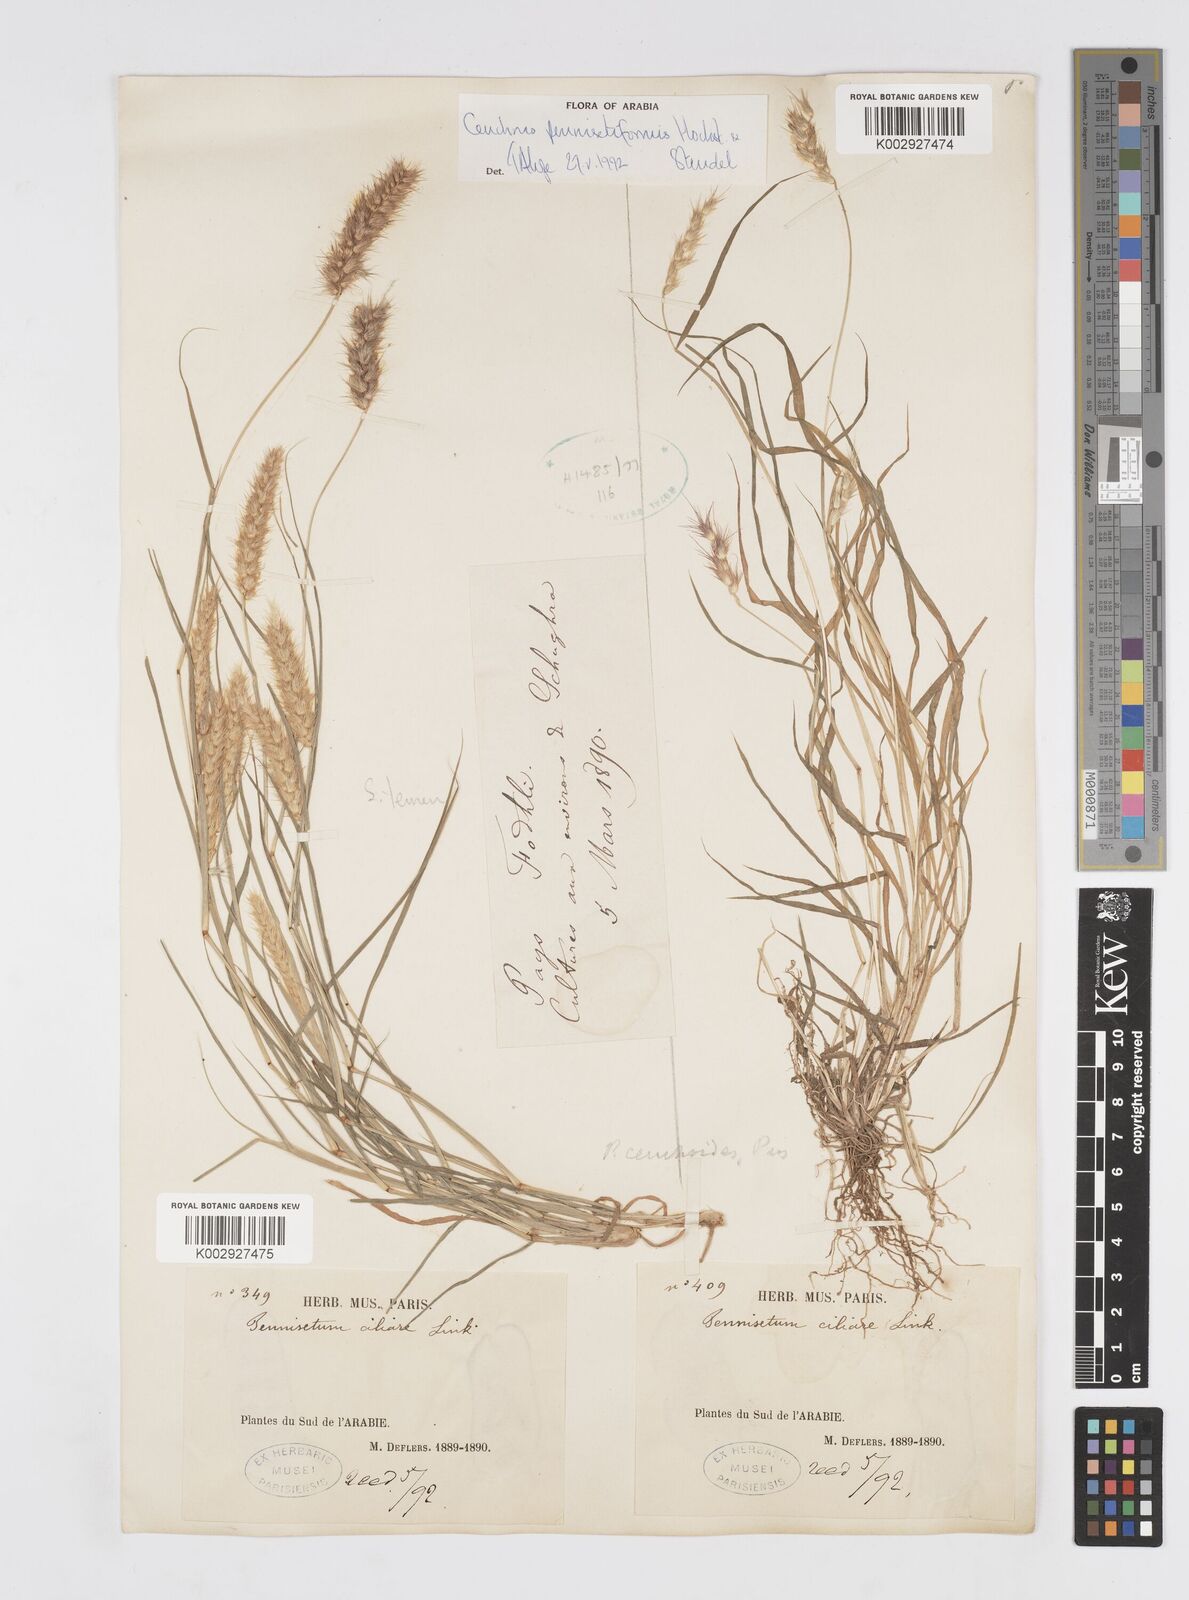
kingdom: Plantae
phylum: Tracheophyta
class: Liliopsida
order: Poales
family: Poaceae
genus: Cenchrus
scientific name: Cenchrus pennisetiformis
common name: Cloncurry
